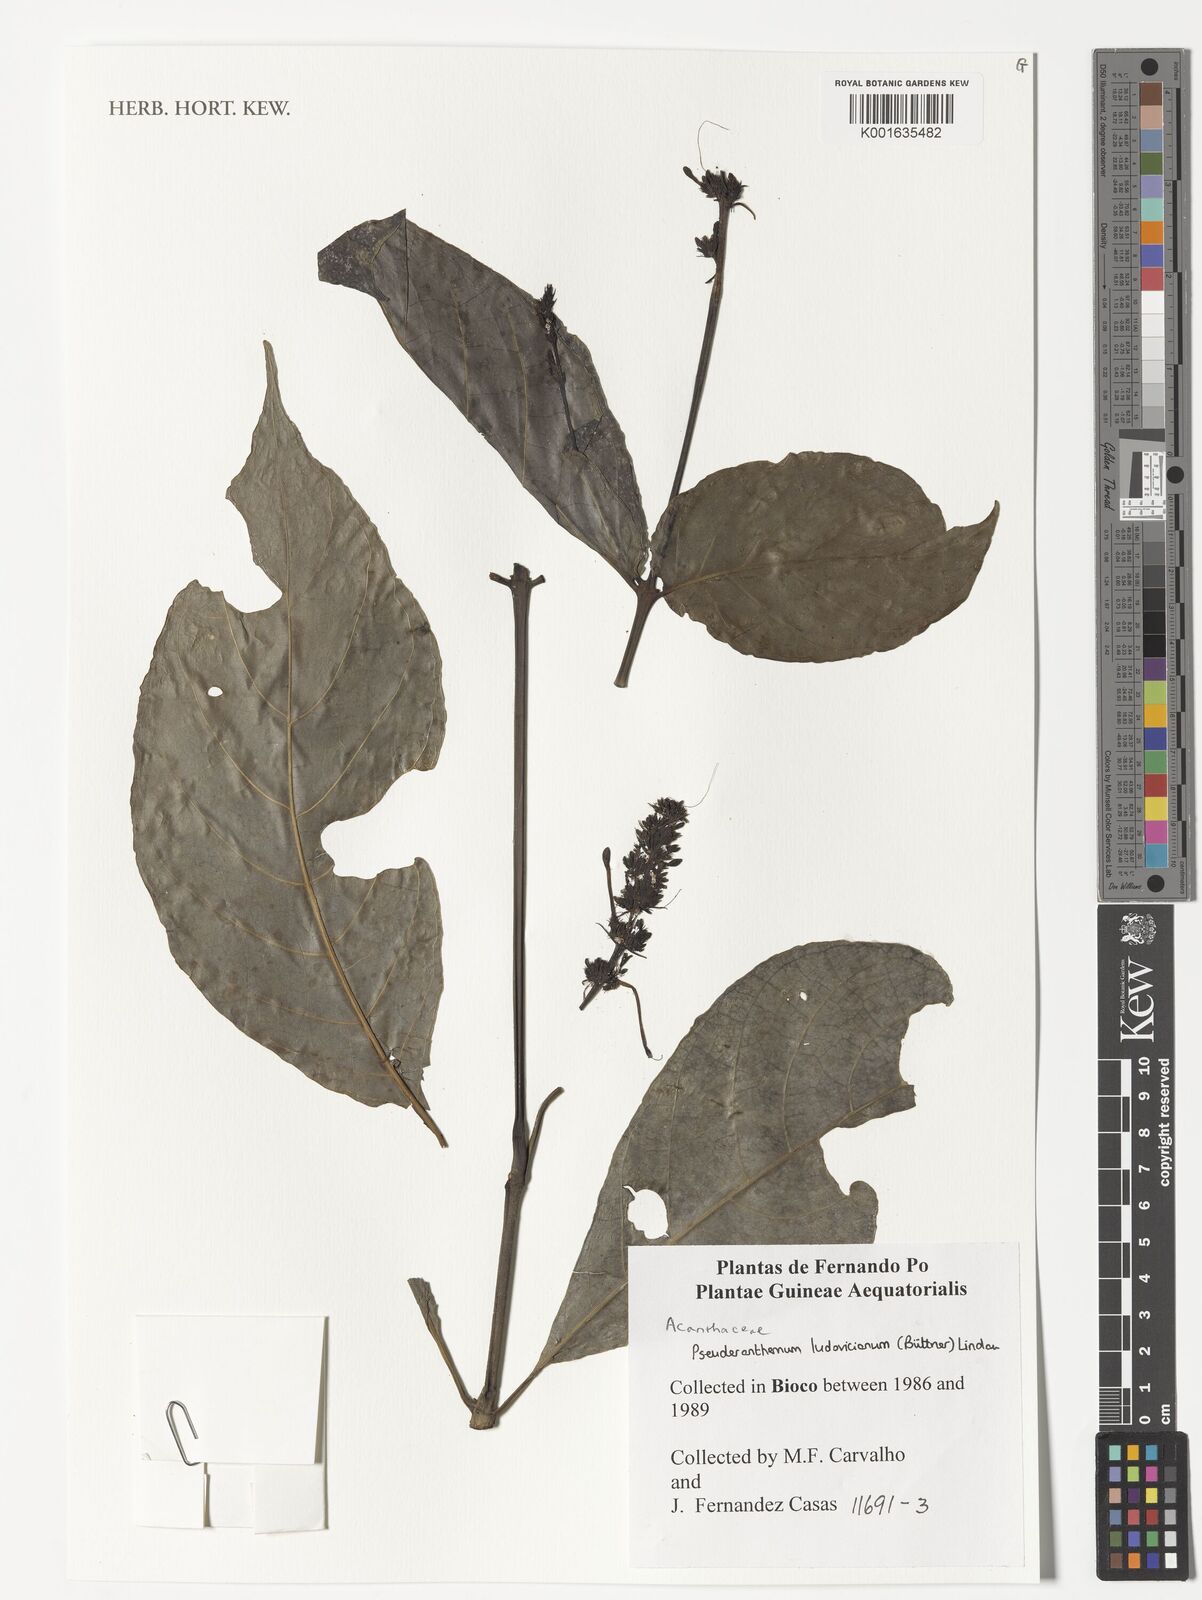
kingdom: Plantae
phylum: Tracheophyta
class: Magnoliopsida
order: Lamiales
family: Acanthaceae
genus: Pseuderanthemum
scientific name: Pseuderanthemum ludovicianum
